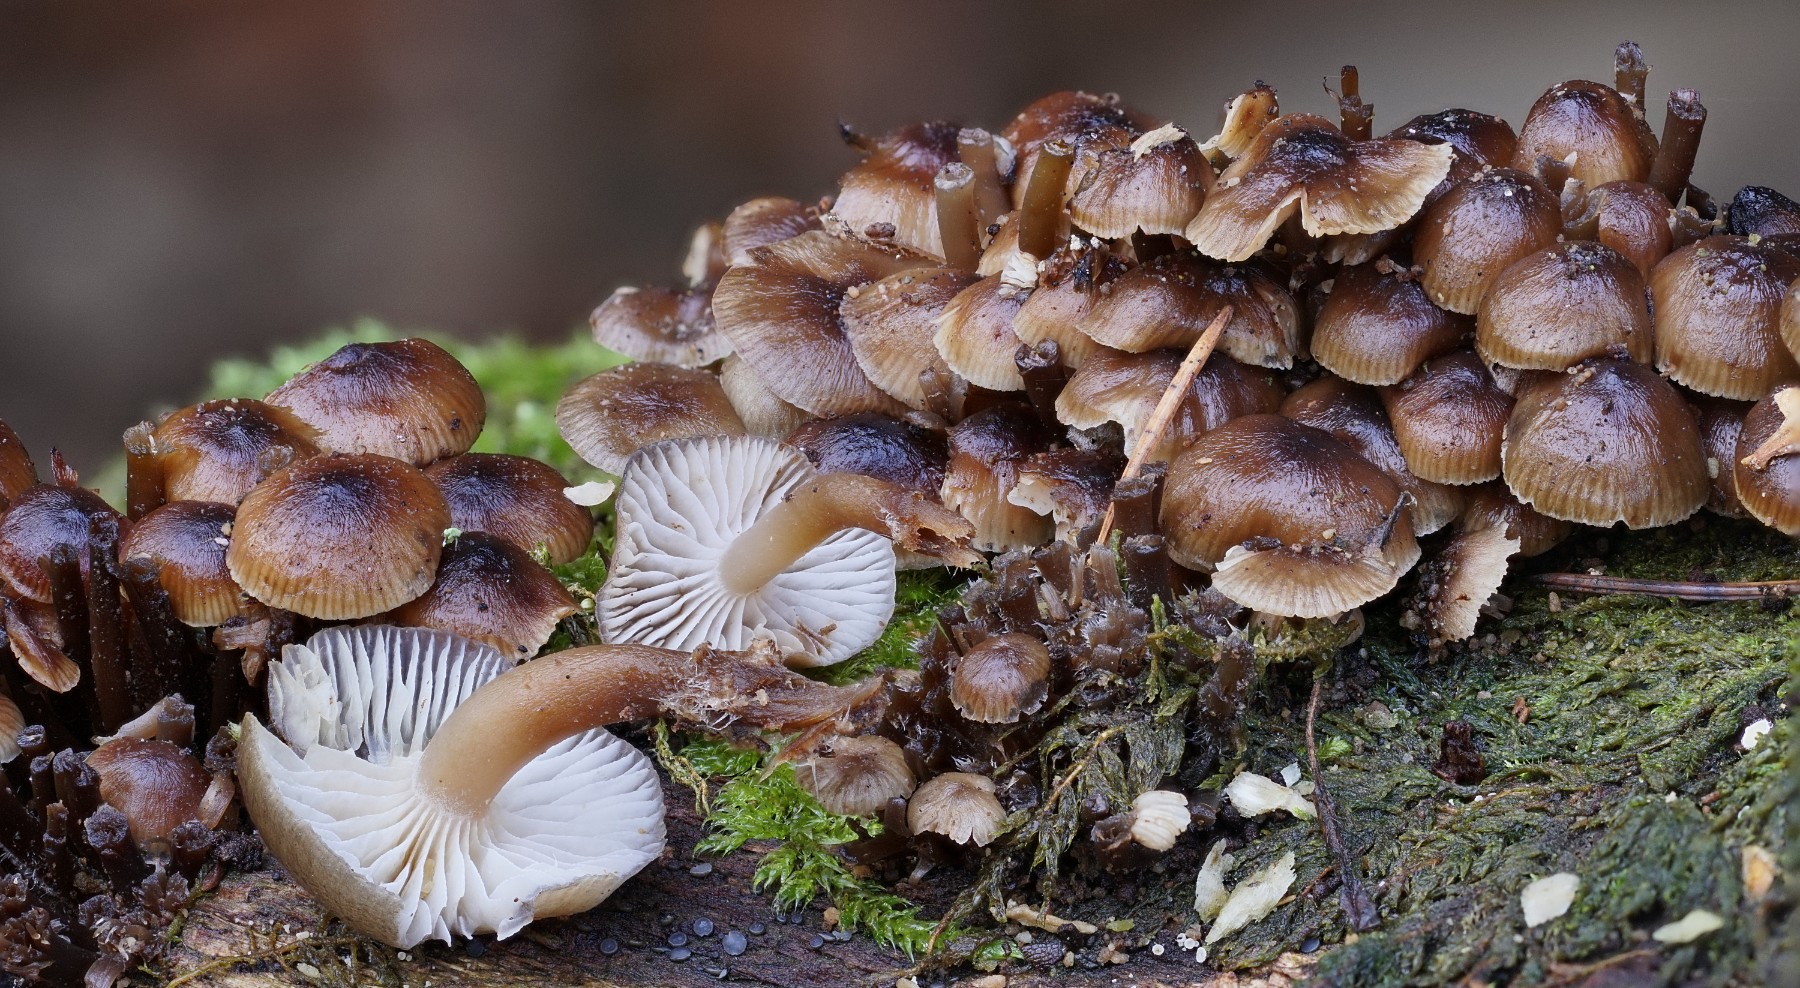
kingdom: Fungi
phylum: Basidiomycota
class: Agaricomycetes
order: Agaricales
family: Mycenaceae
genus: Mycena
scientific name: Mycena tintinnabulum
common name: vinter-huesvamp
